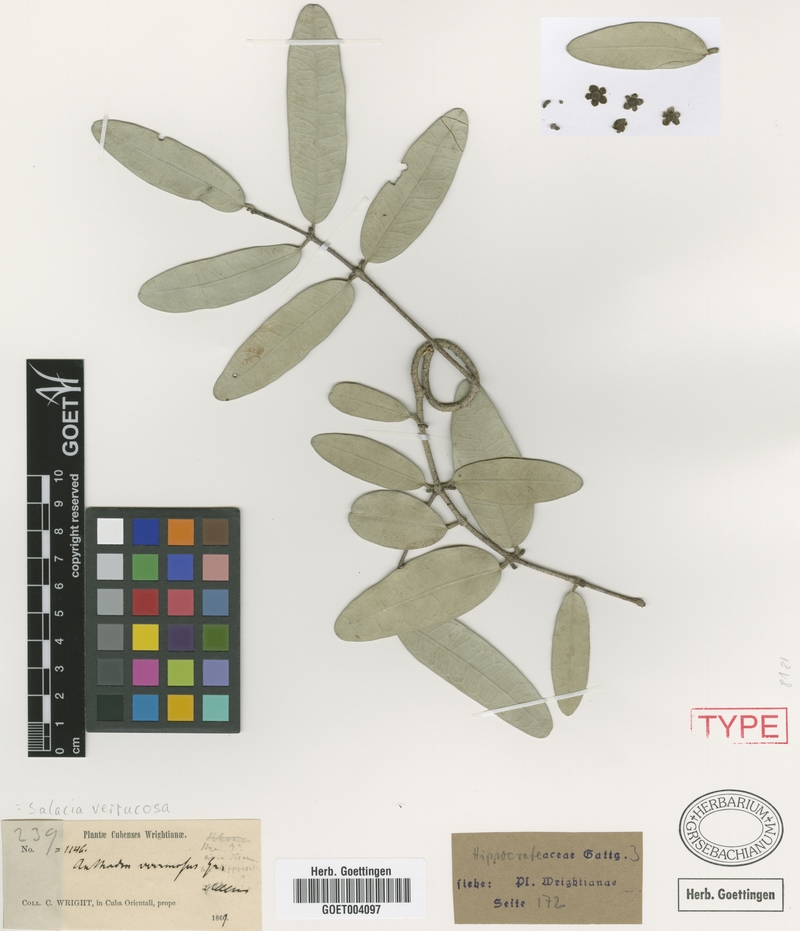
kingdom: Plantae
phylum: Tracheophyta
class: Magnoliopsida
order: Celastrales
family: Celastraceae
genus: Salacia
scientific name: Salacia wrightii
